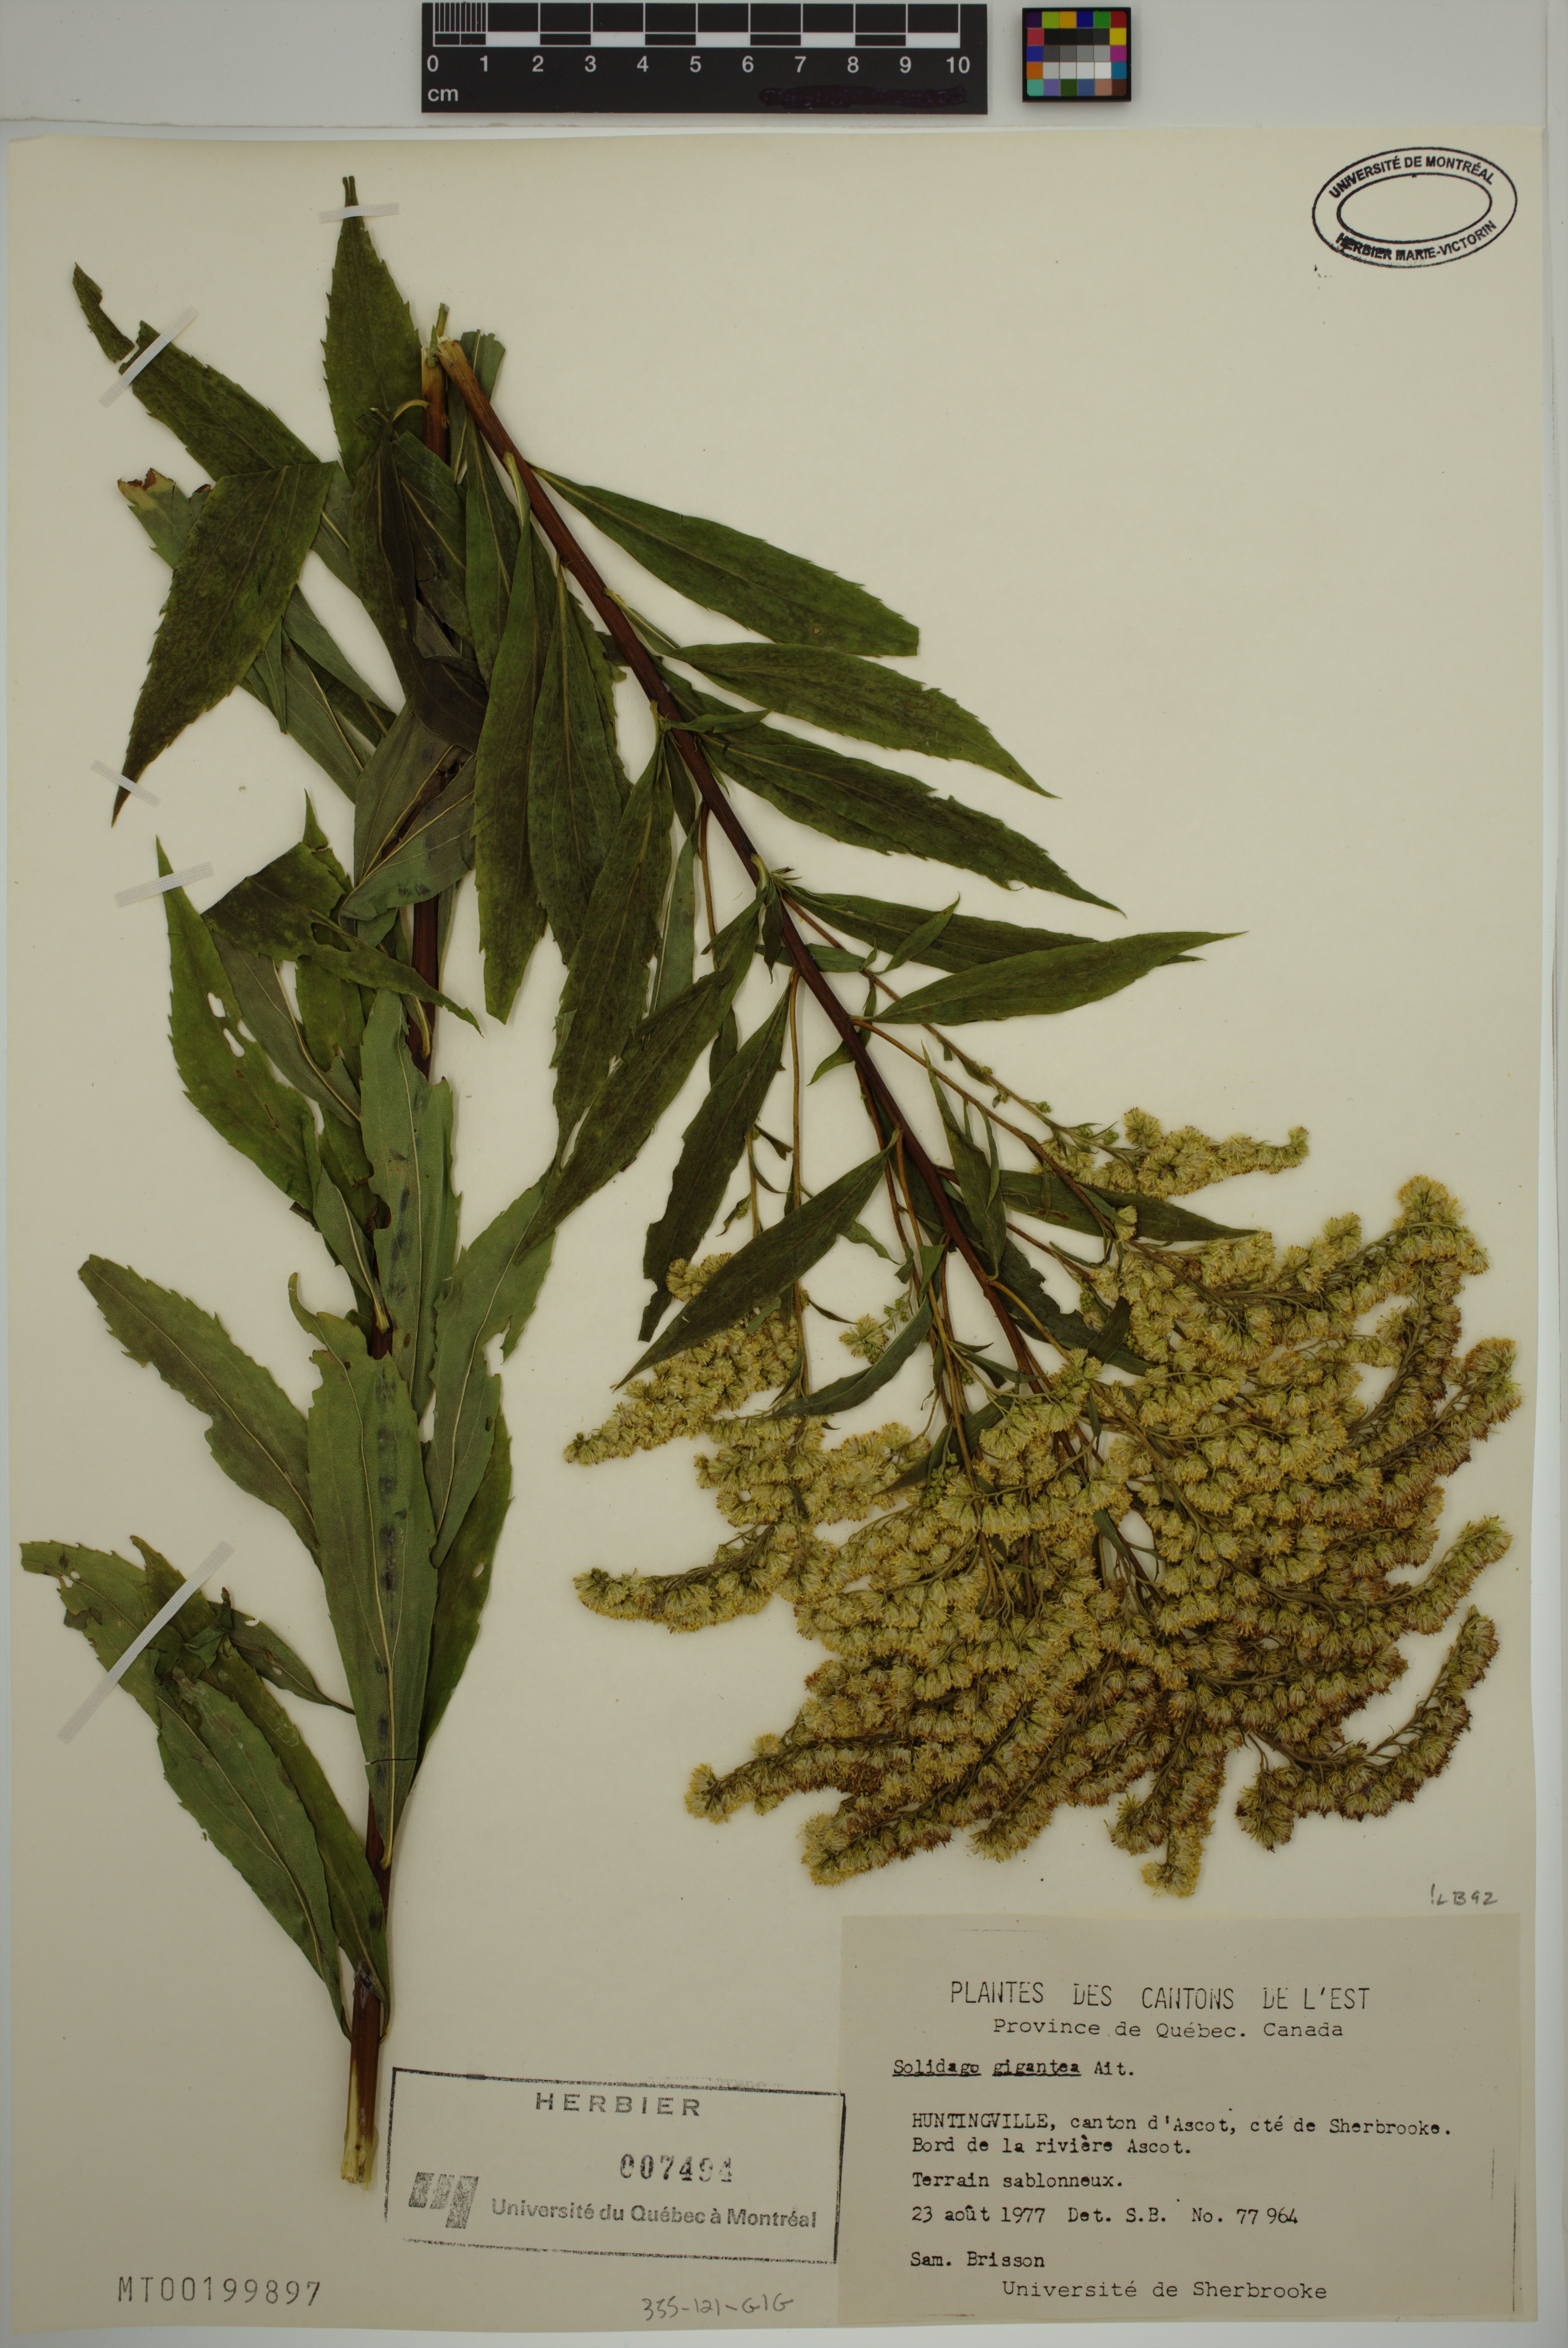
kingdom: Plantae
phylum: Tracheophyta
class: Magnoliopsida
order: Asterales
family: Asteraceae
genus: Solidago
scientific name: Solidago gigantea
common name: Giant goldenrod
